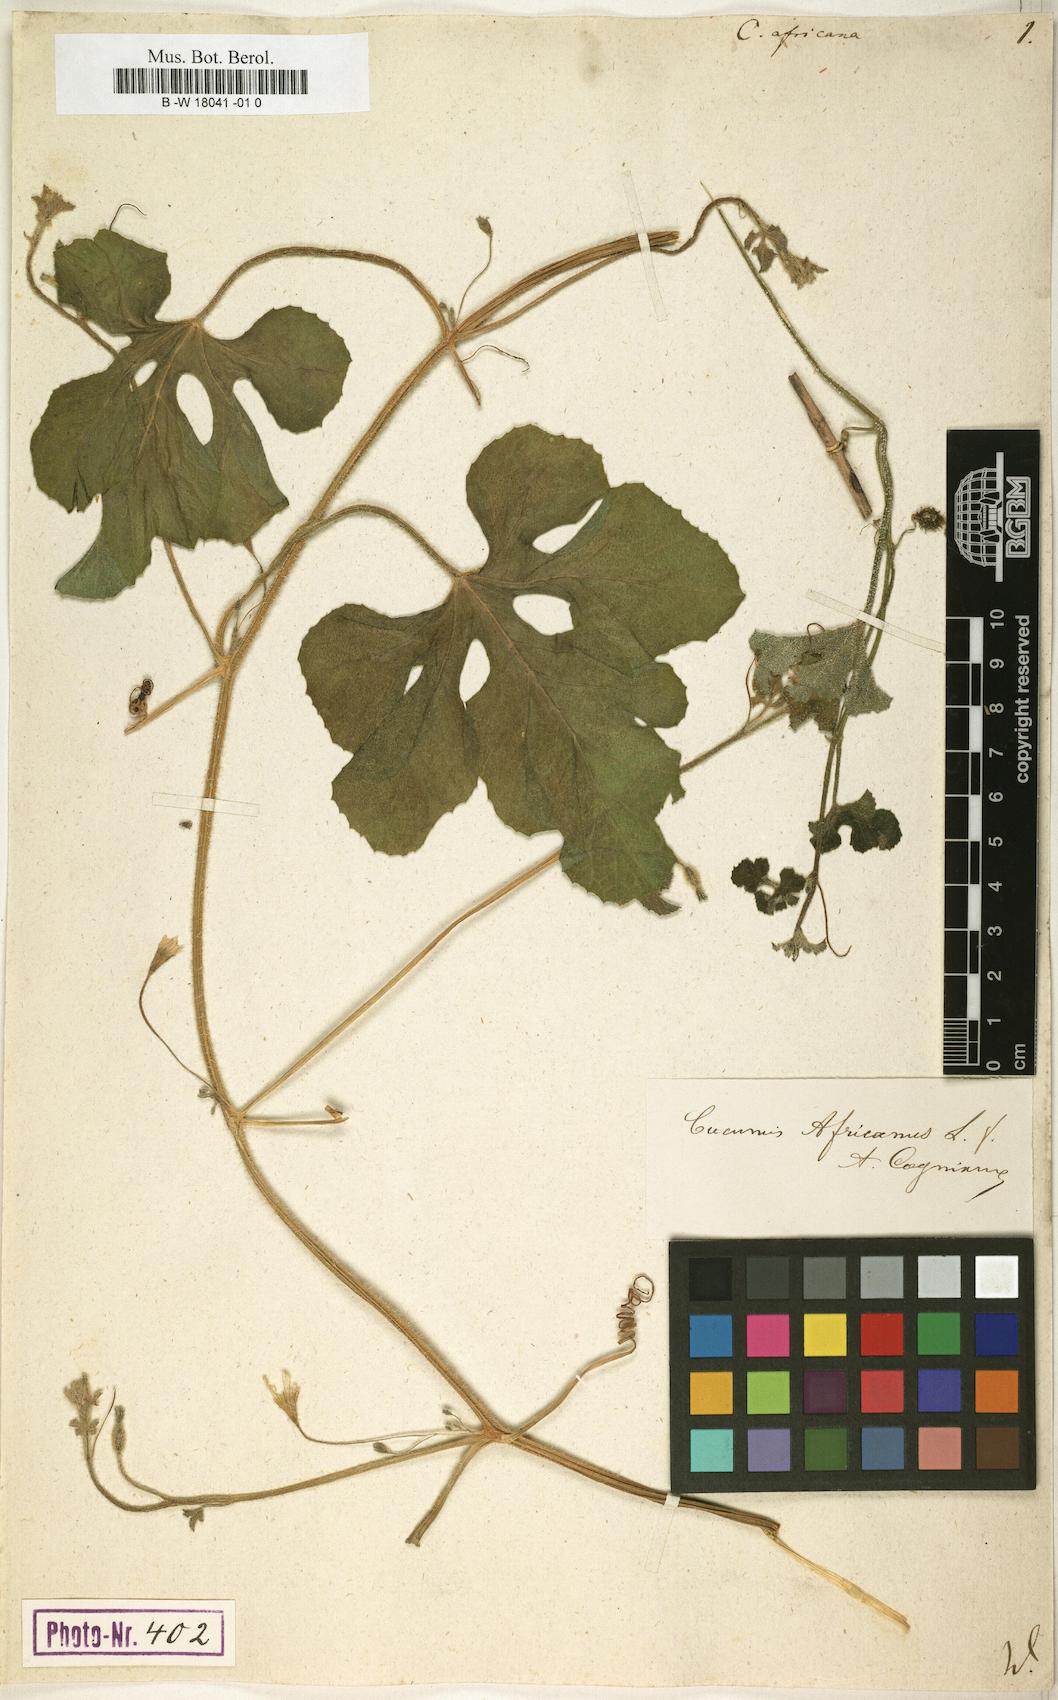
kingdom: Plantae
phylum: Tracheophyta
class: Magnoliopsida
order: Cucurbitales
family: Cucurbitaceae
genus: Cucumis
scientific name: Cucumis africanus
